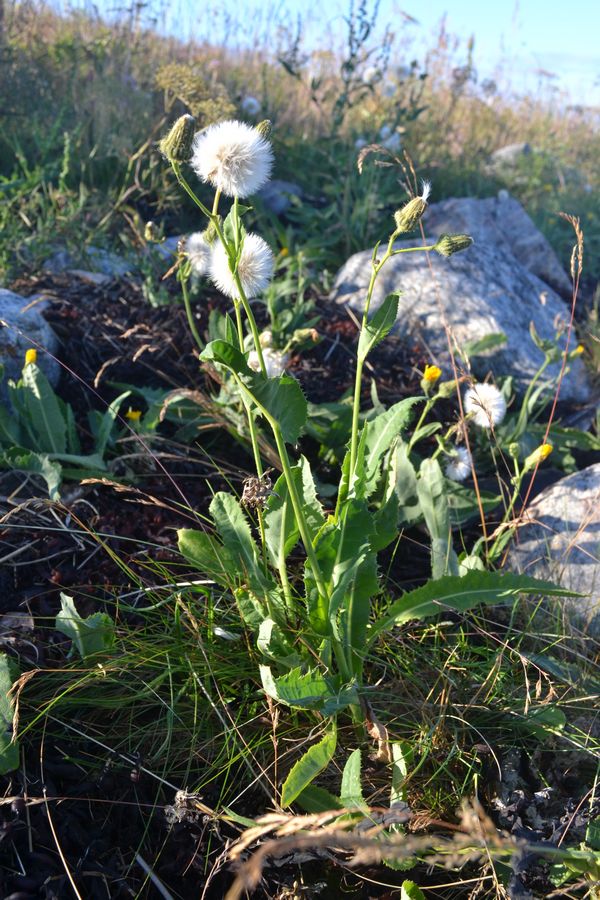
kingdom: Plantae
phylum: Tracheophyta
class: Magnoliopsida
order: Asterales
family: Asteraceae
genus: Sonchus
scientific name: Sonchus arvensis
